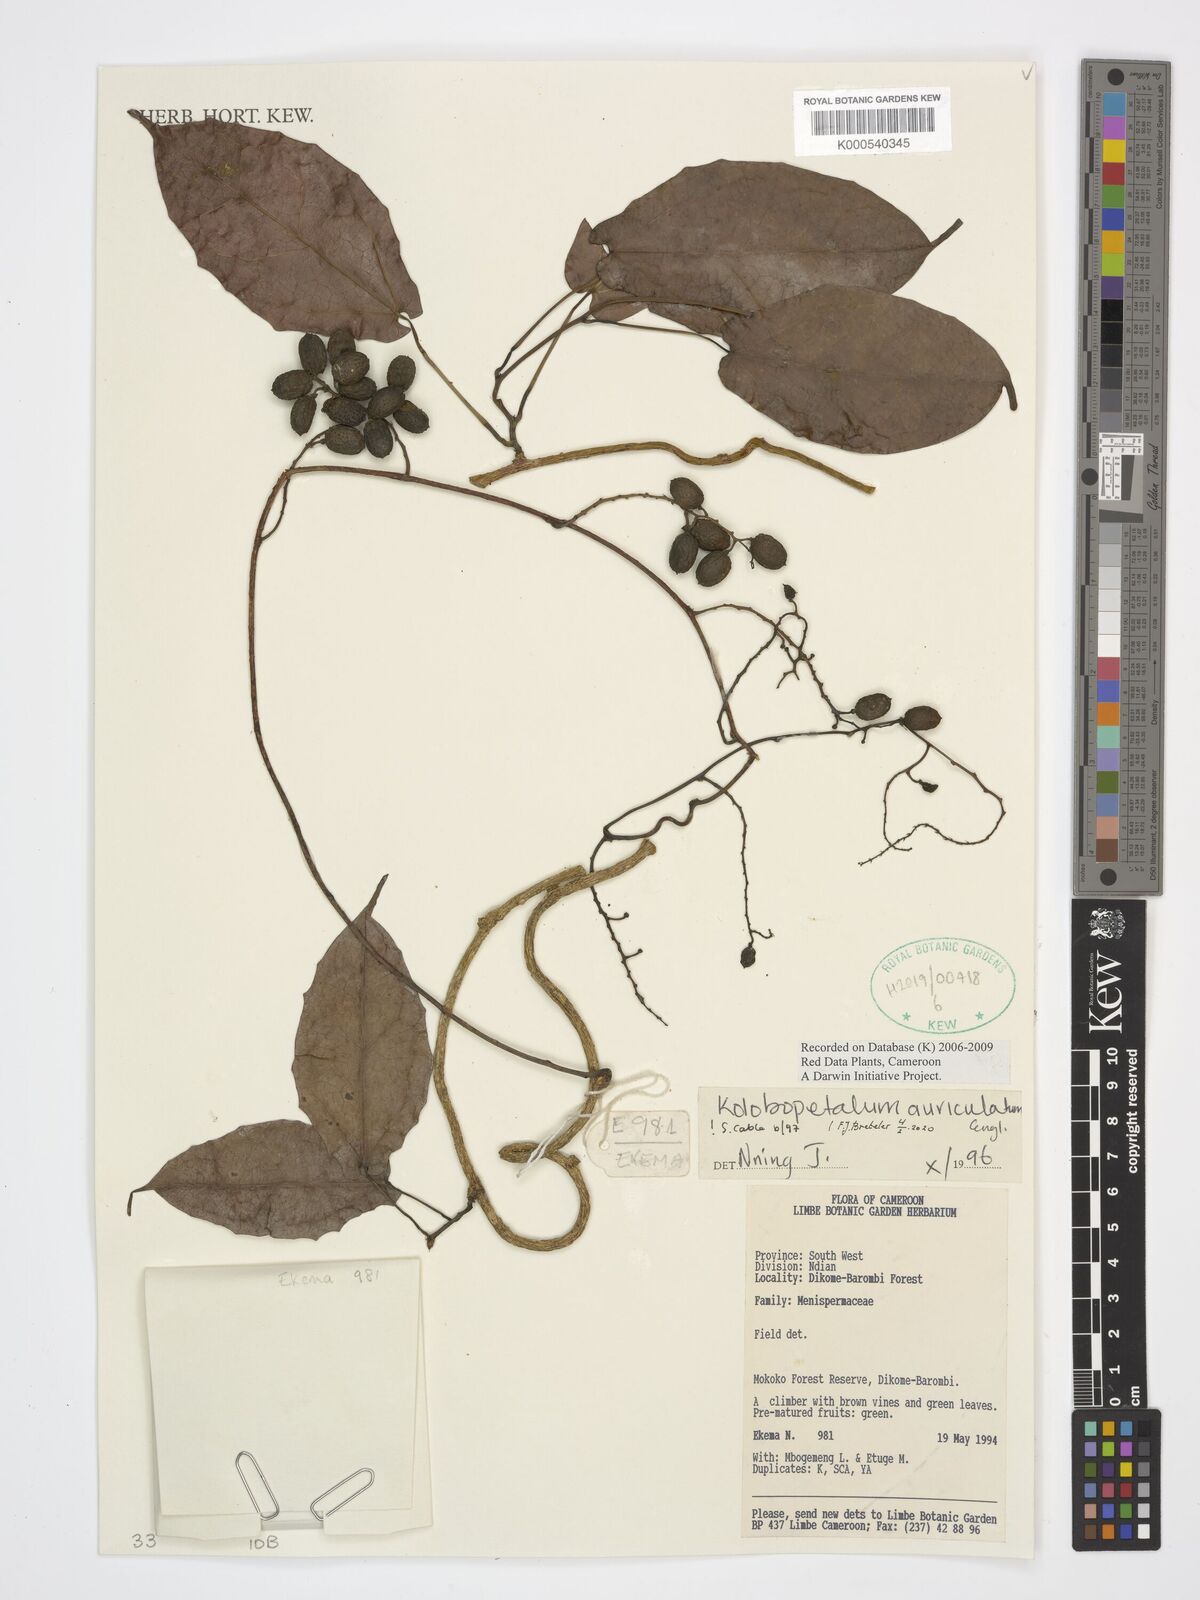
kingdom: Plantae
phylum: Tracheophyta
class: Magnoliopsida
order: Ranunculales
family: Menispermaceae
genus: Kolobopetalum
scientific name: Kolobopetalum auriculatum
